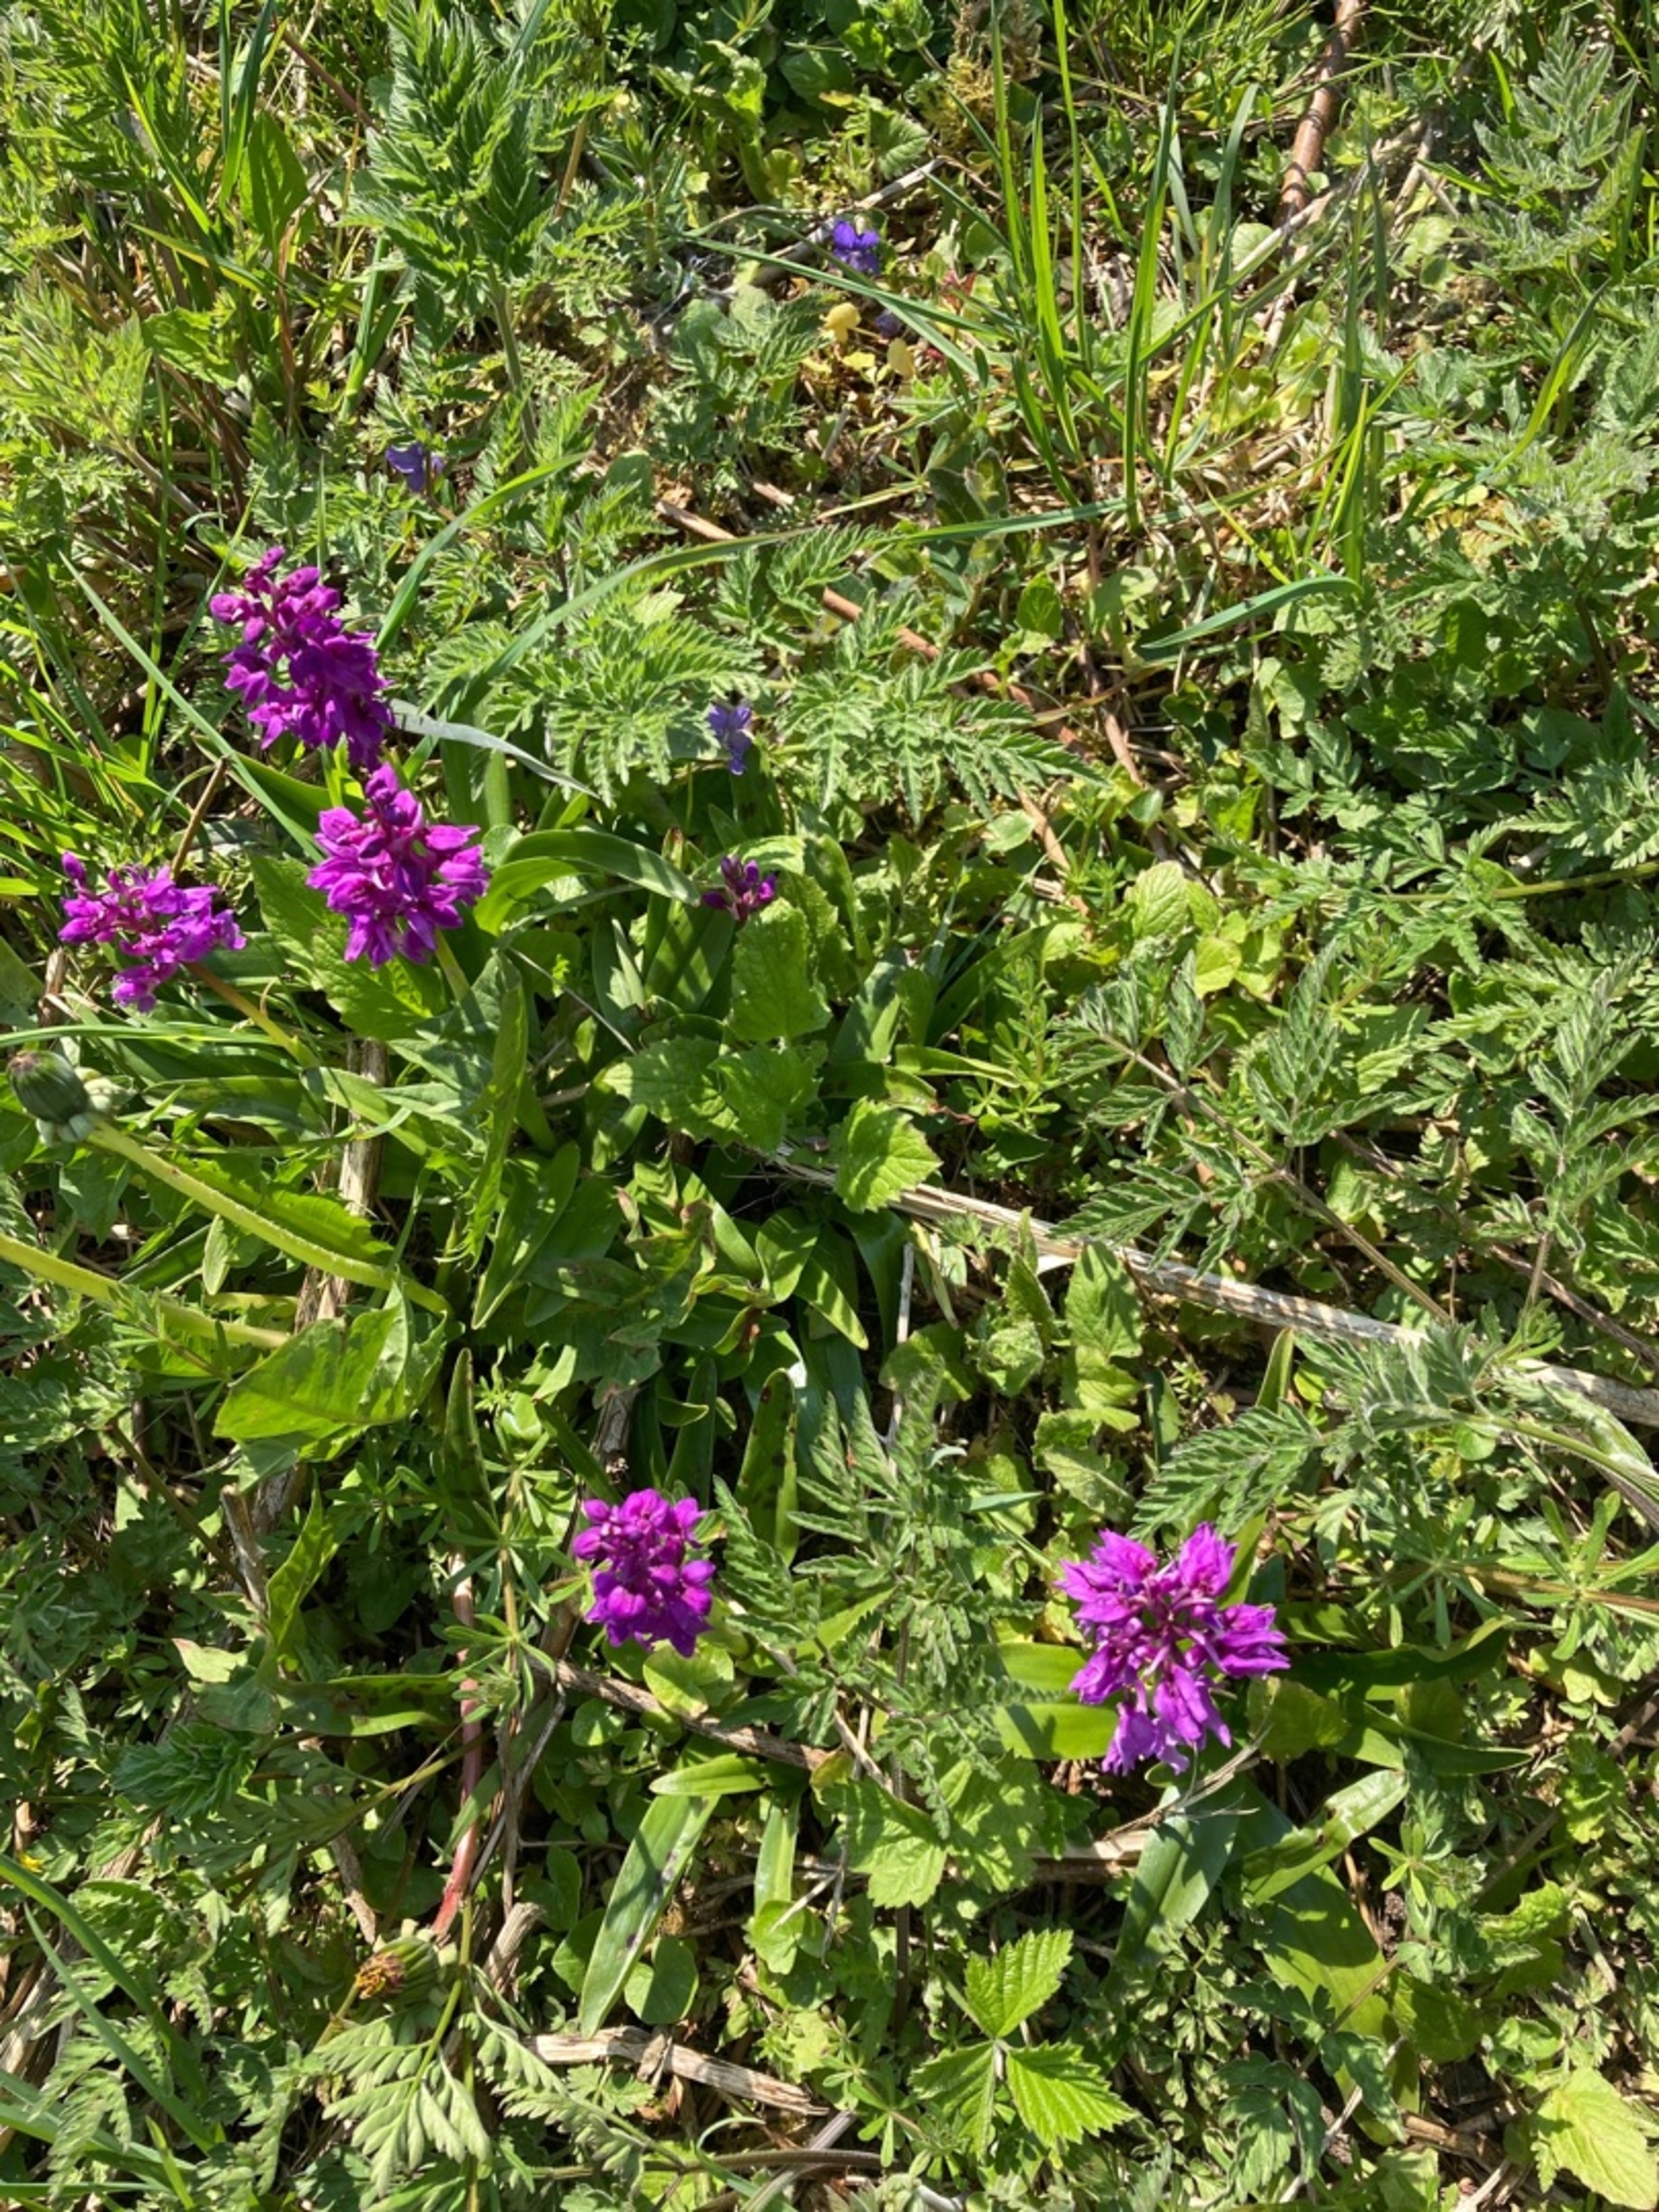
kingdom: Plantae
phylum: Tracheophyta
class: Liliopsida
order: Asparagales
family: Orchidaceae
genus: Orchis
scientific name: Orchis mascula
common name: Tyndakset gøgeurt
